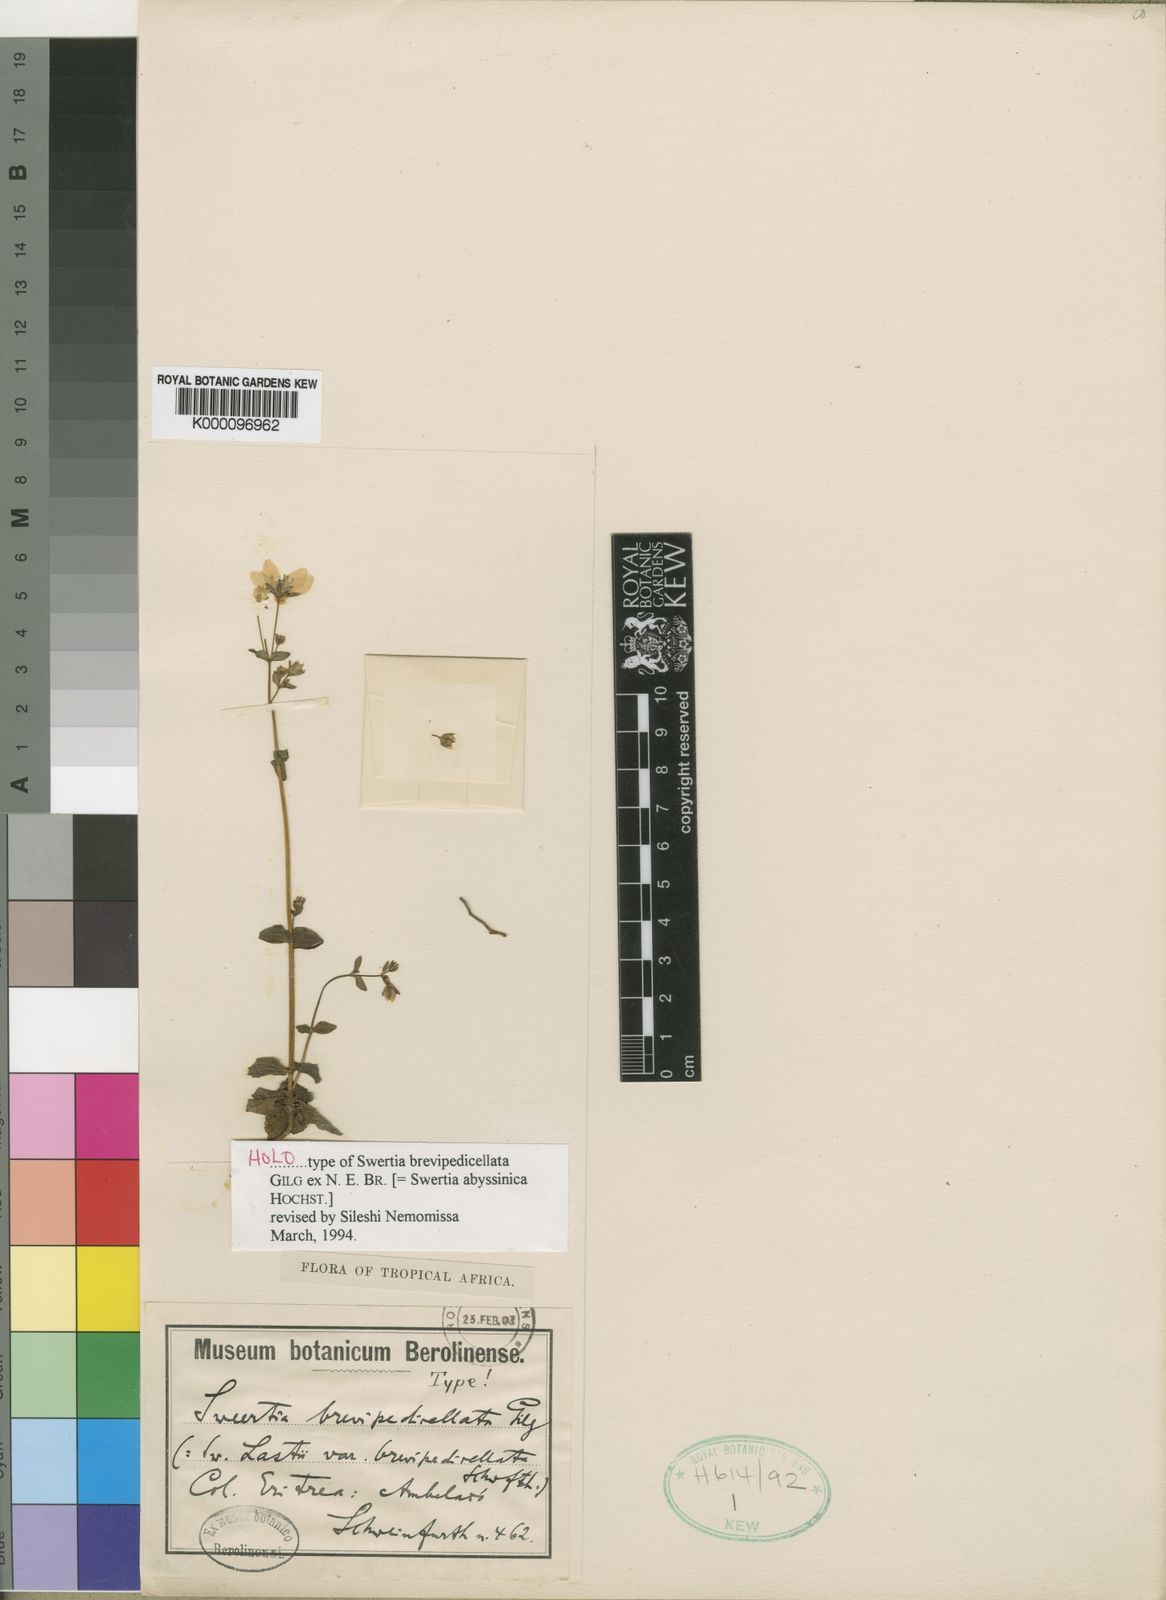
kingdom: Plantae
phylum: Tracheophyta
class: Magnoliopsida
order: Gentianales
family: Gentianaceae
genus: Swertia
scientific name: Swertia abyssinica
